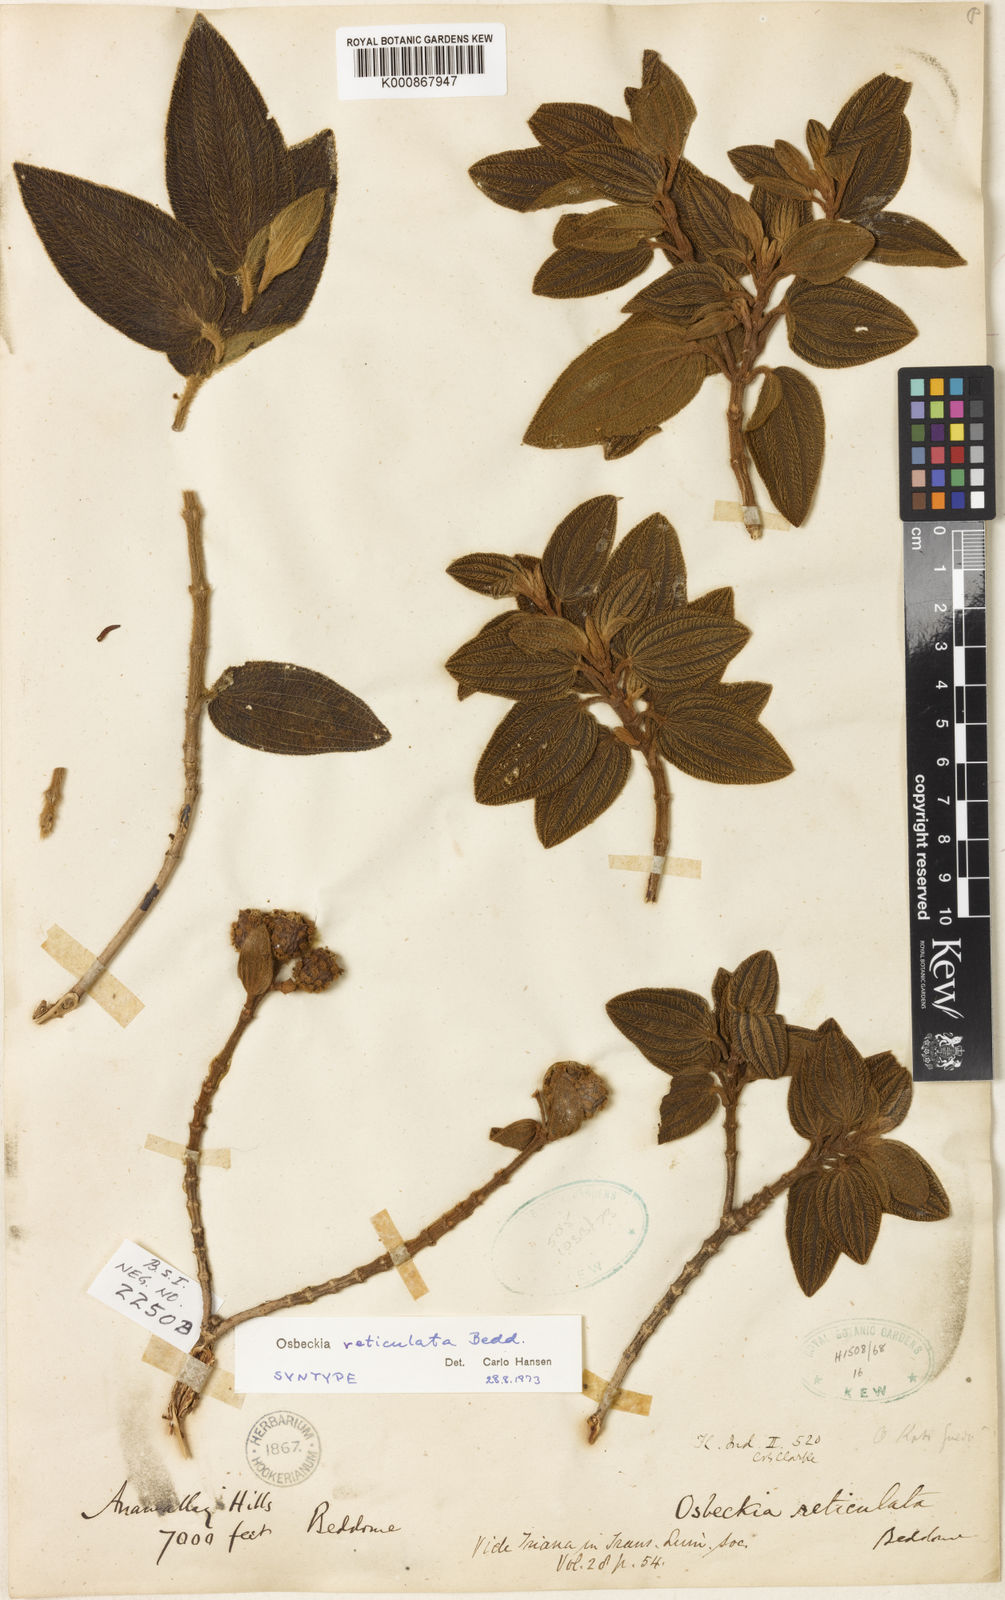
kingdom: Plantae
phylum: Tracheophyta
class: Magnoliopsida
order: Myrtales
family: Melastomataceae
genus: Osbeckia
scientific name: Osbeckia reticulata
